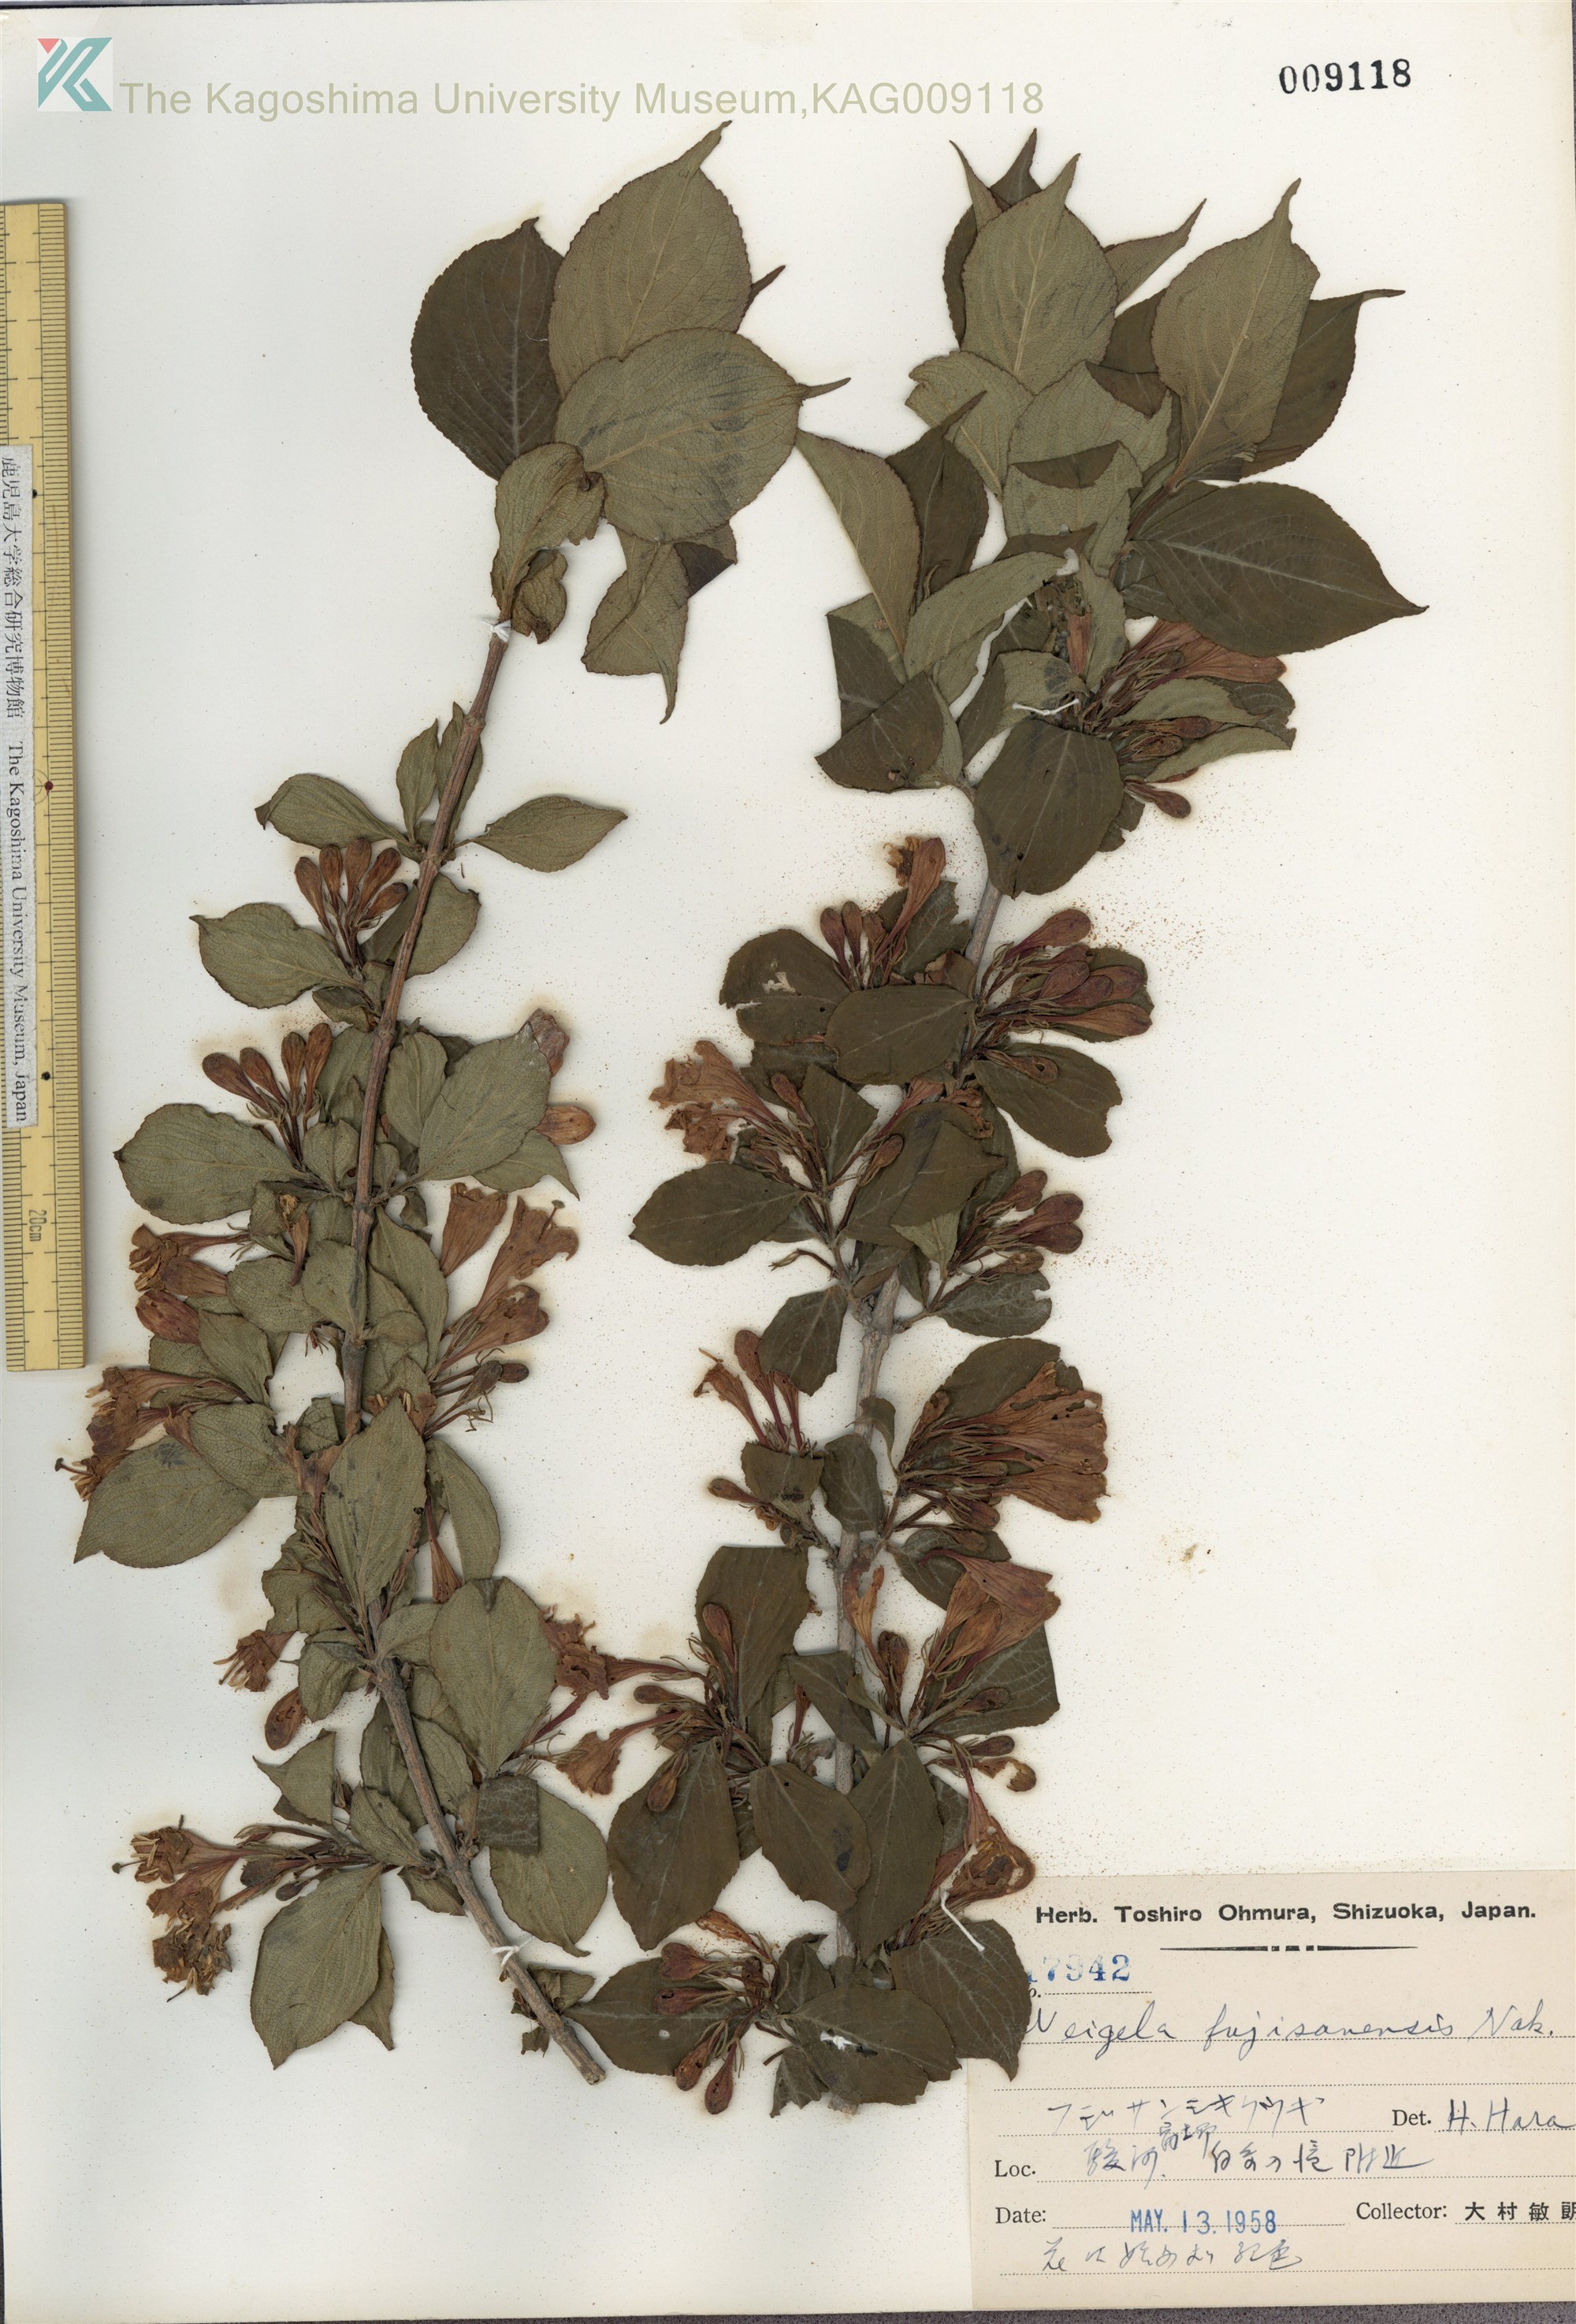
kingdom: Plantae
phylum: Tracheophyta
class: Magnoliopsida
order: Dipsacales
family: Caprifoliaceae
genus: Weigela
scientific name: Weigela decora
